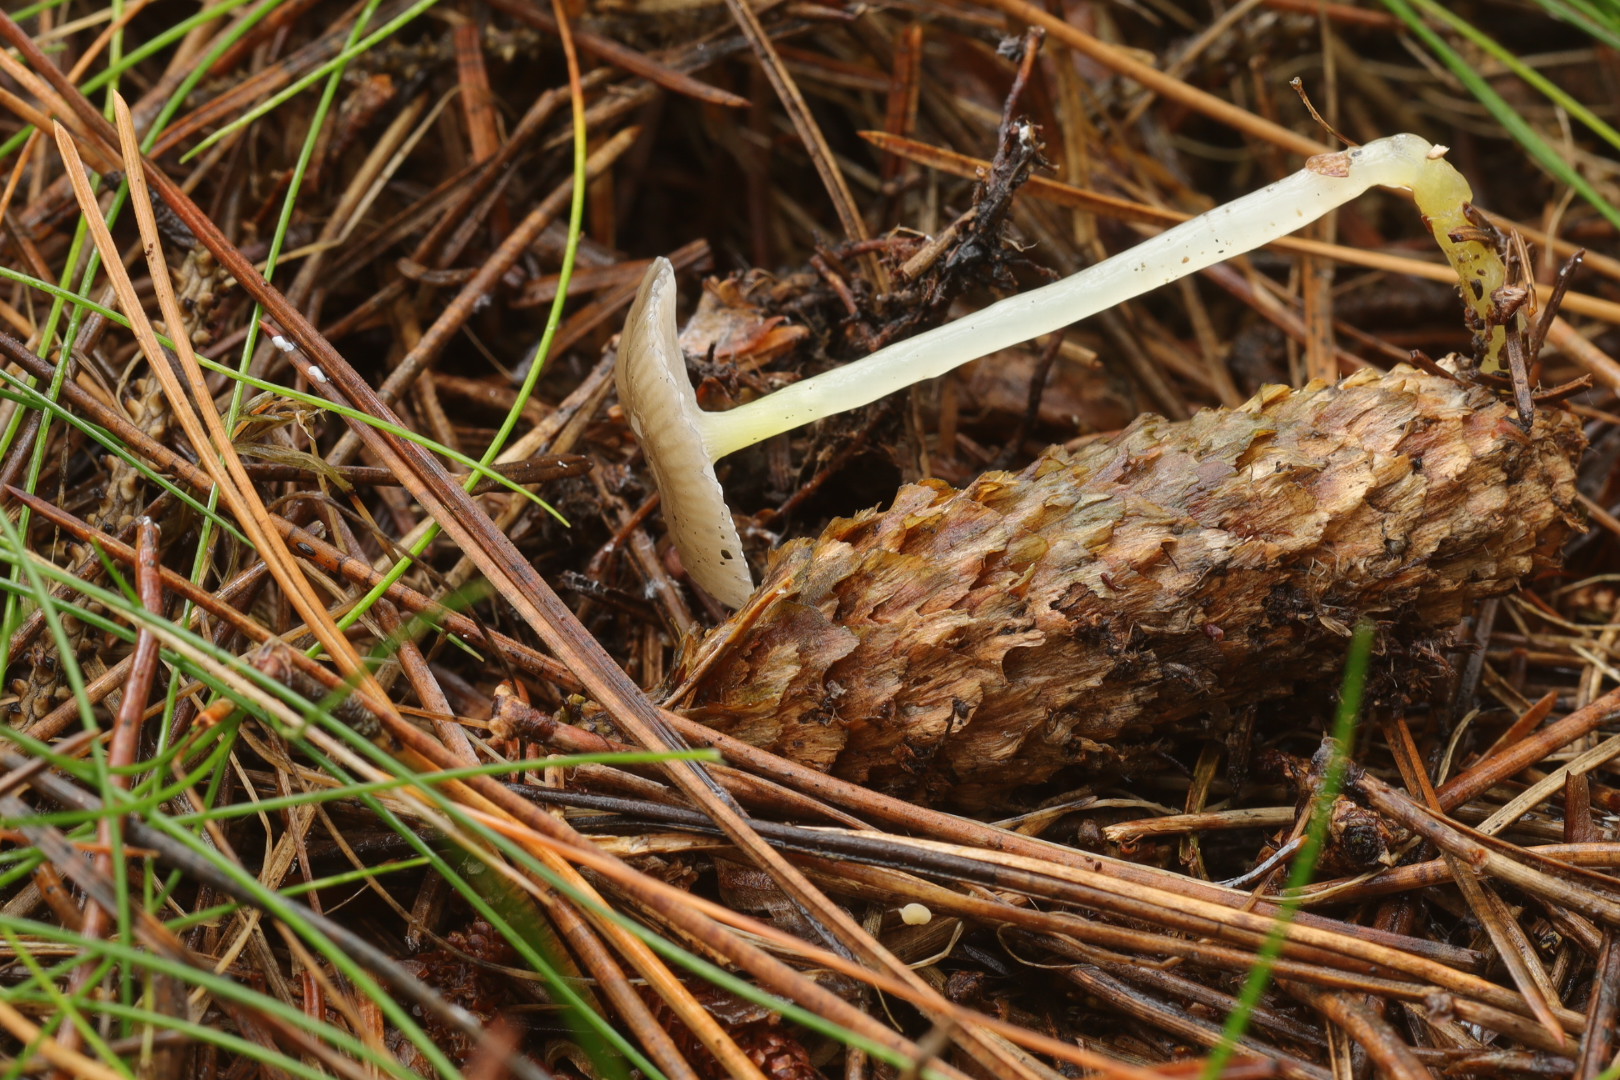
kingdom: Fungi
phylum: Basidiomycota
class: Agaricomycetes
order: Agaricales
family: Mycenaceae
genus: Mycena
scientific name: Mycena epipterygia
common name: gulstokket huesvamp
